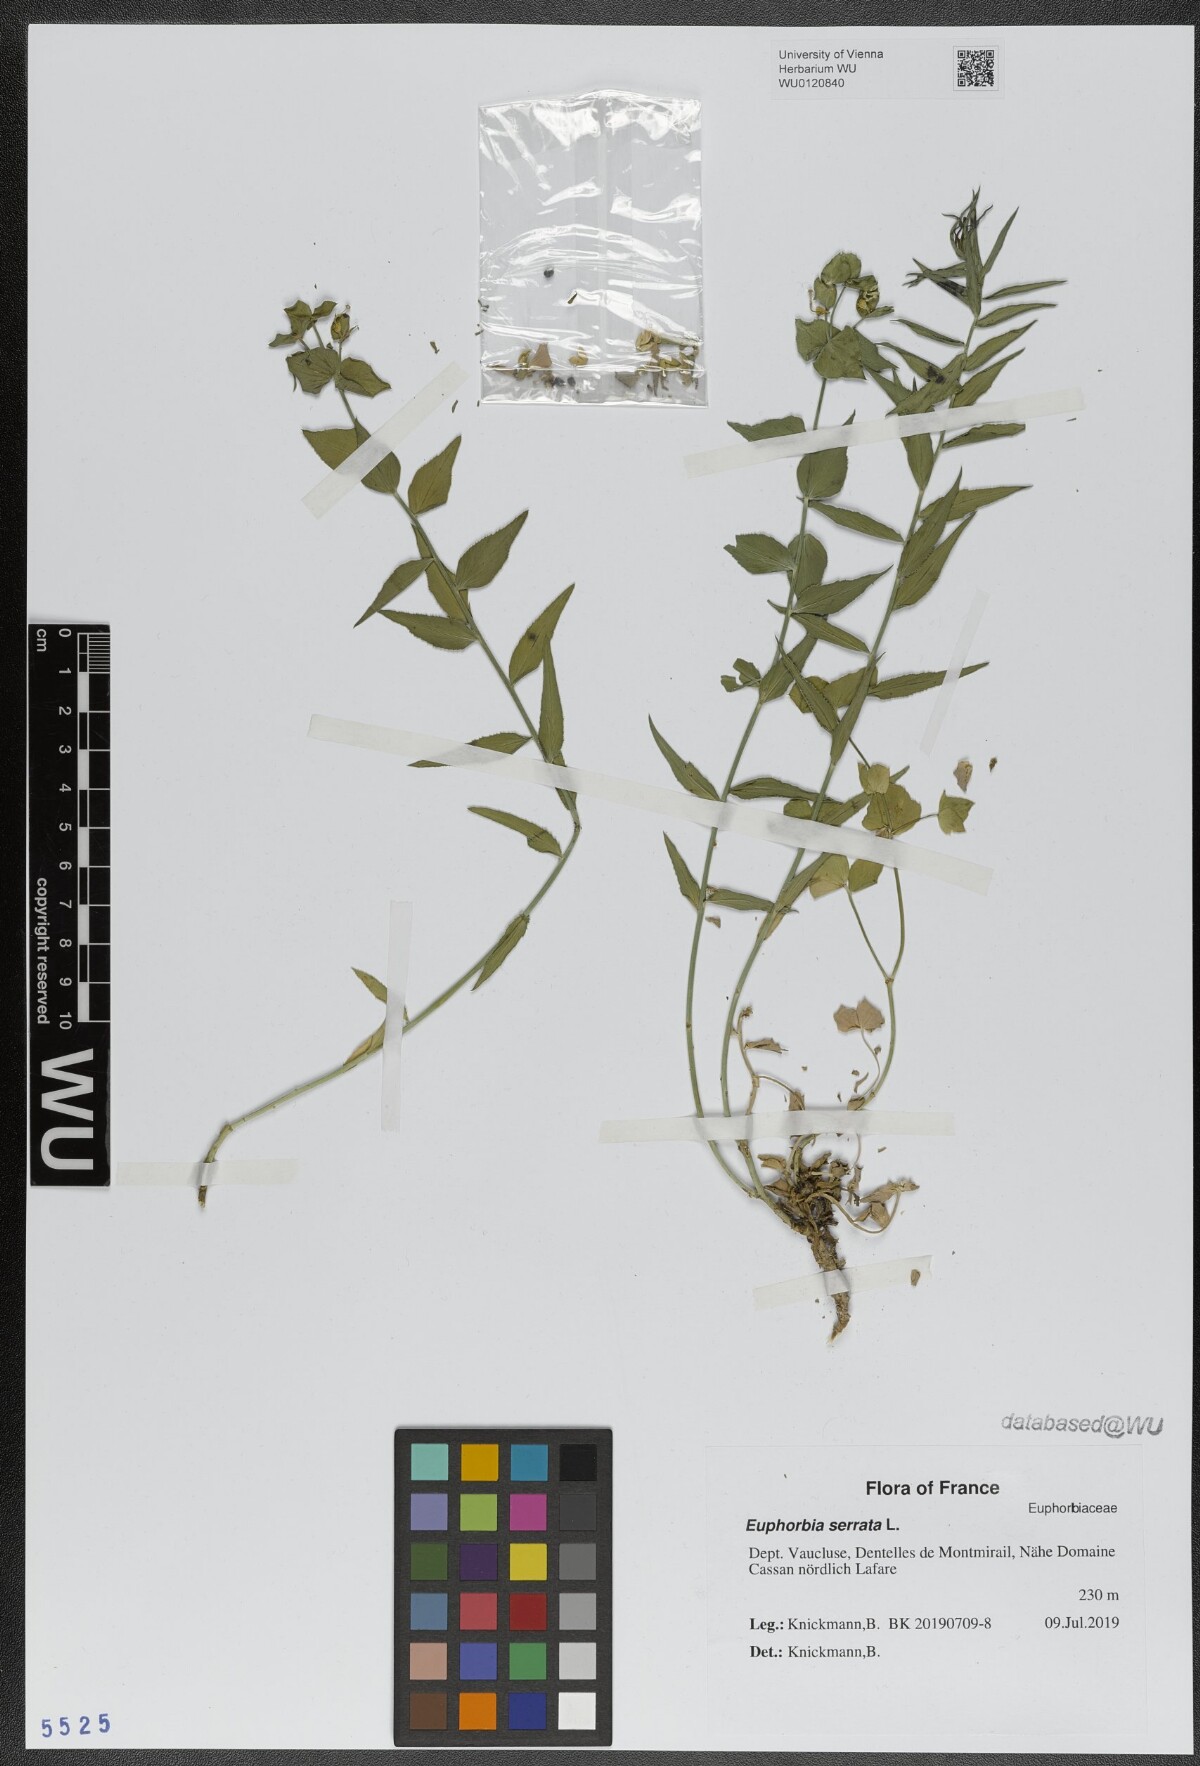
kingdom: Plantae
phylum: Tracheophyta
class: Magnoliopsida
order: Malpighiales
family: Euphorbiaceae
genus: Euphorbia
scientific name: Euphorbia serrata
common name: Serrate spurge
